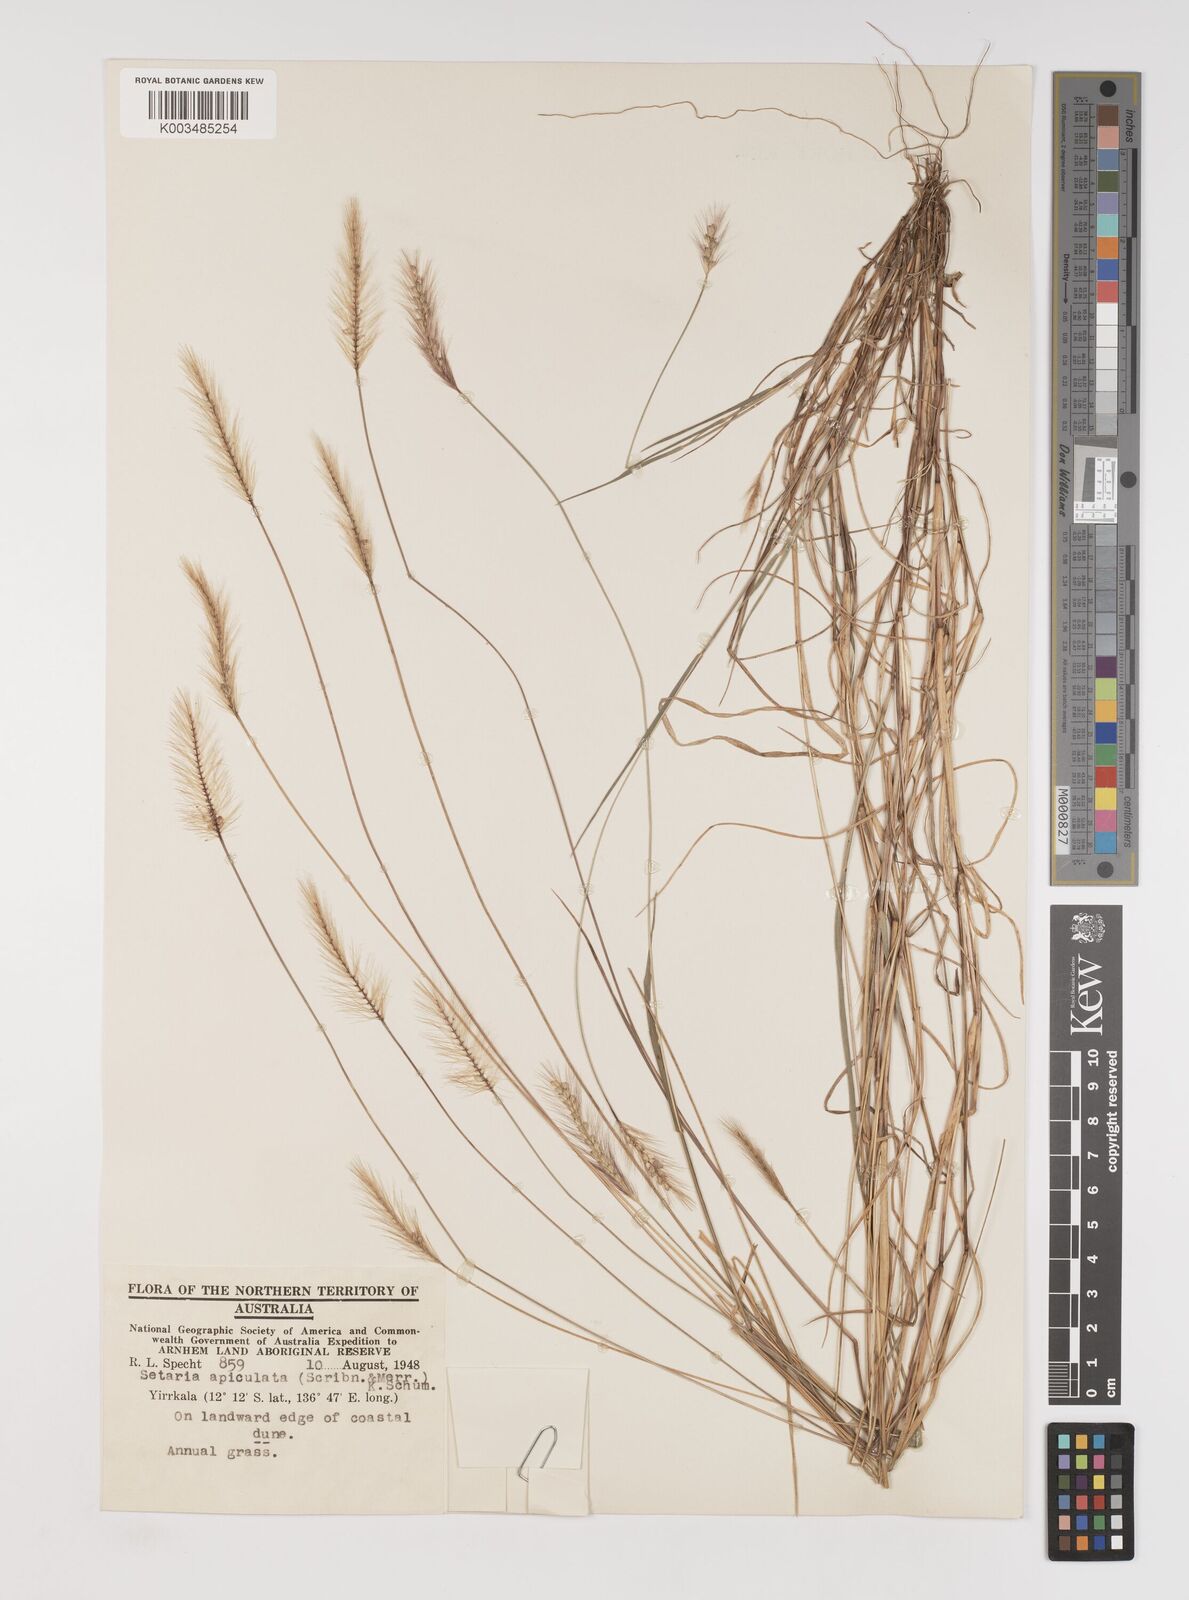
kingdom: Plantae
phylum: Tracheophyta
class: Liliopsida
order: Poales
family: Poaceae
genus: Setaria
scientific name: Setaria apiculata
